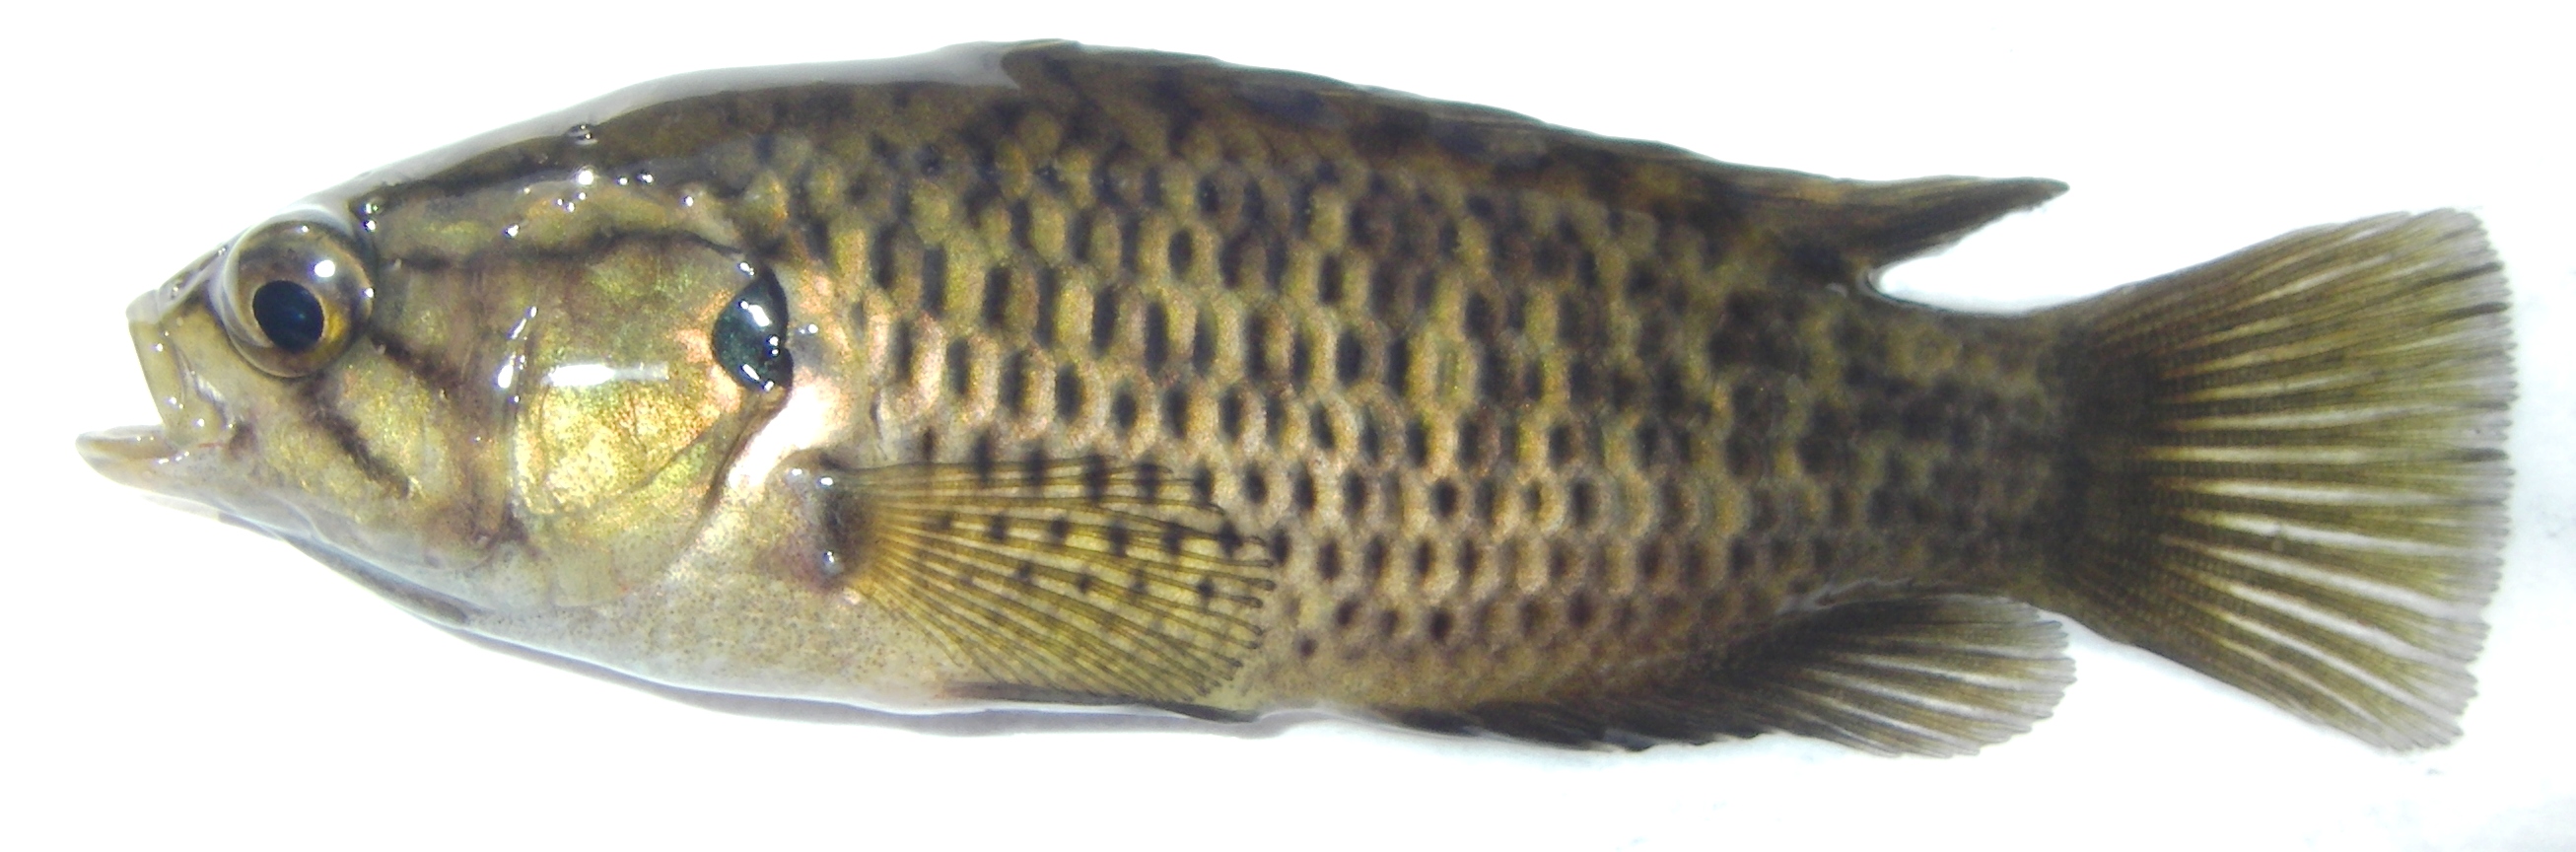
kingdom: Animalia
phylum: Chordata
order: Perciformes
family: Anabantidae
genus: Sandelia
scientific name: Sandelia capensis
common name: Cape kurper
